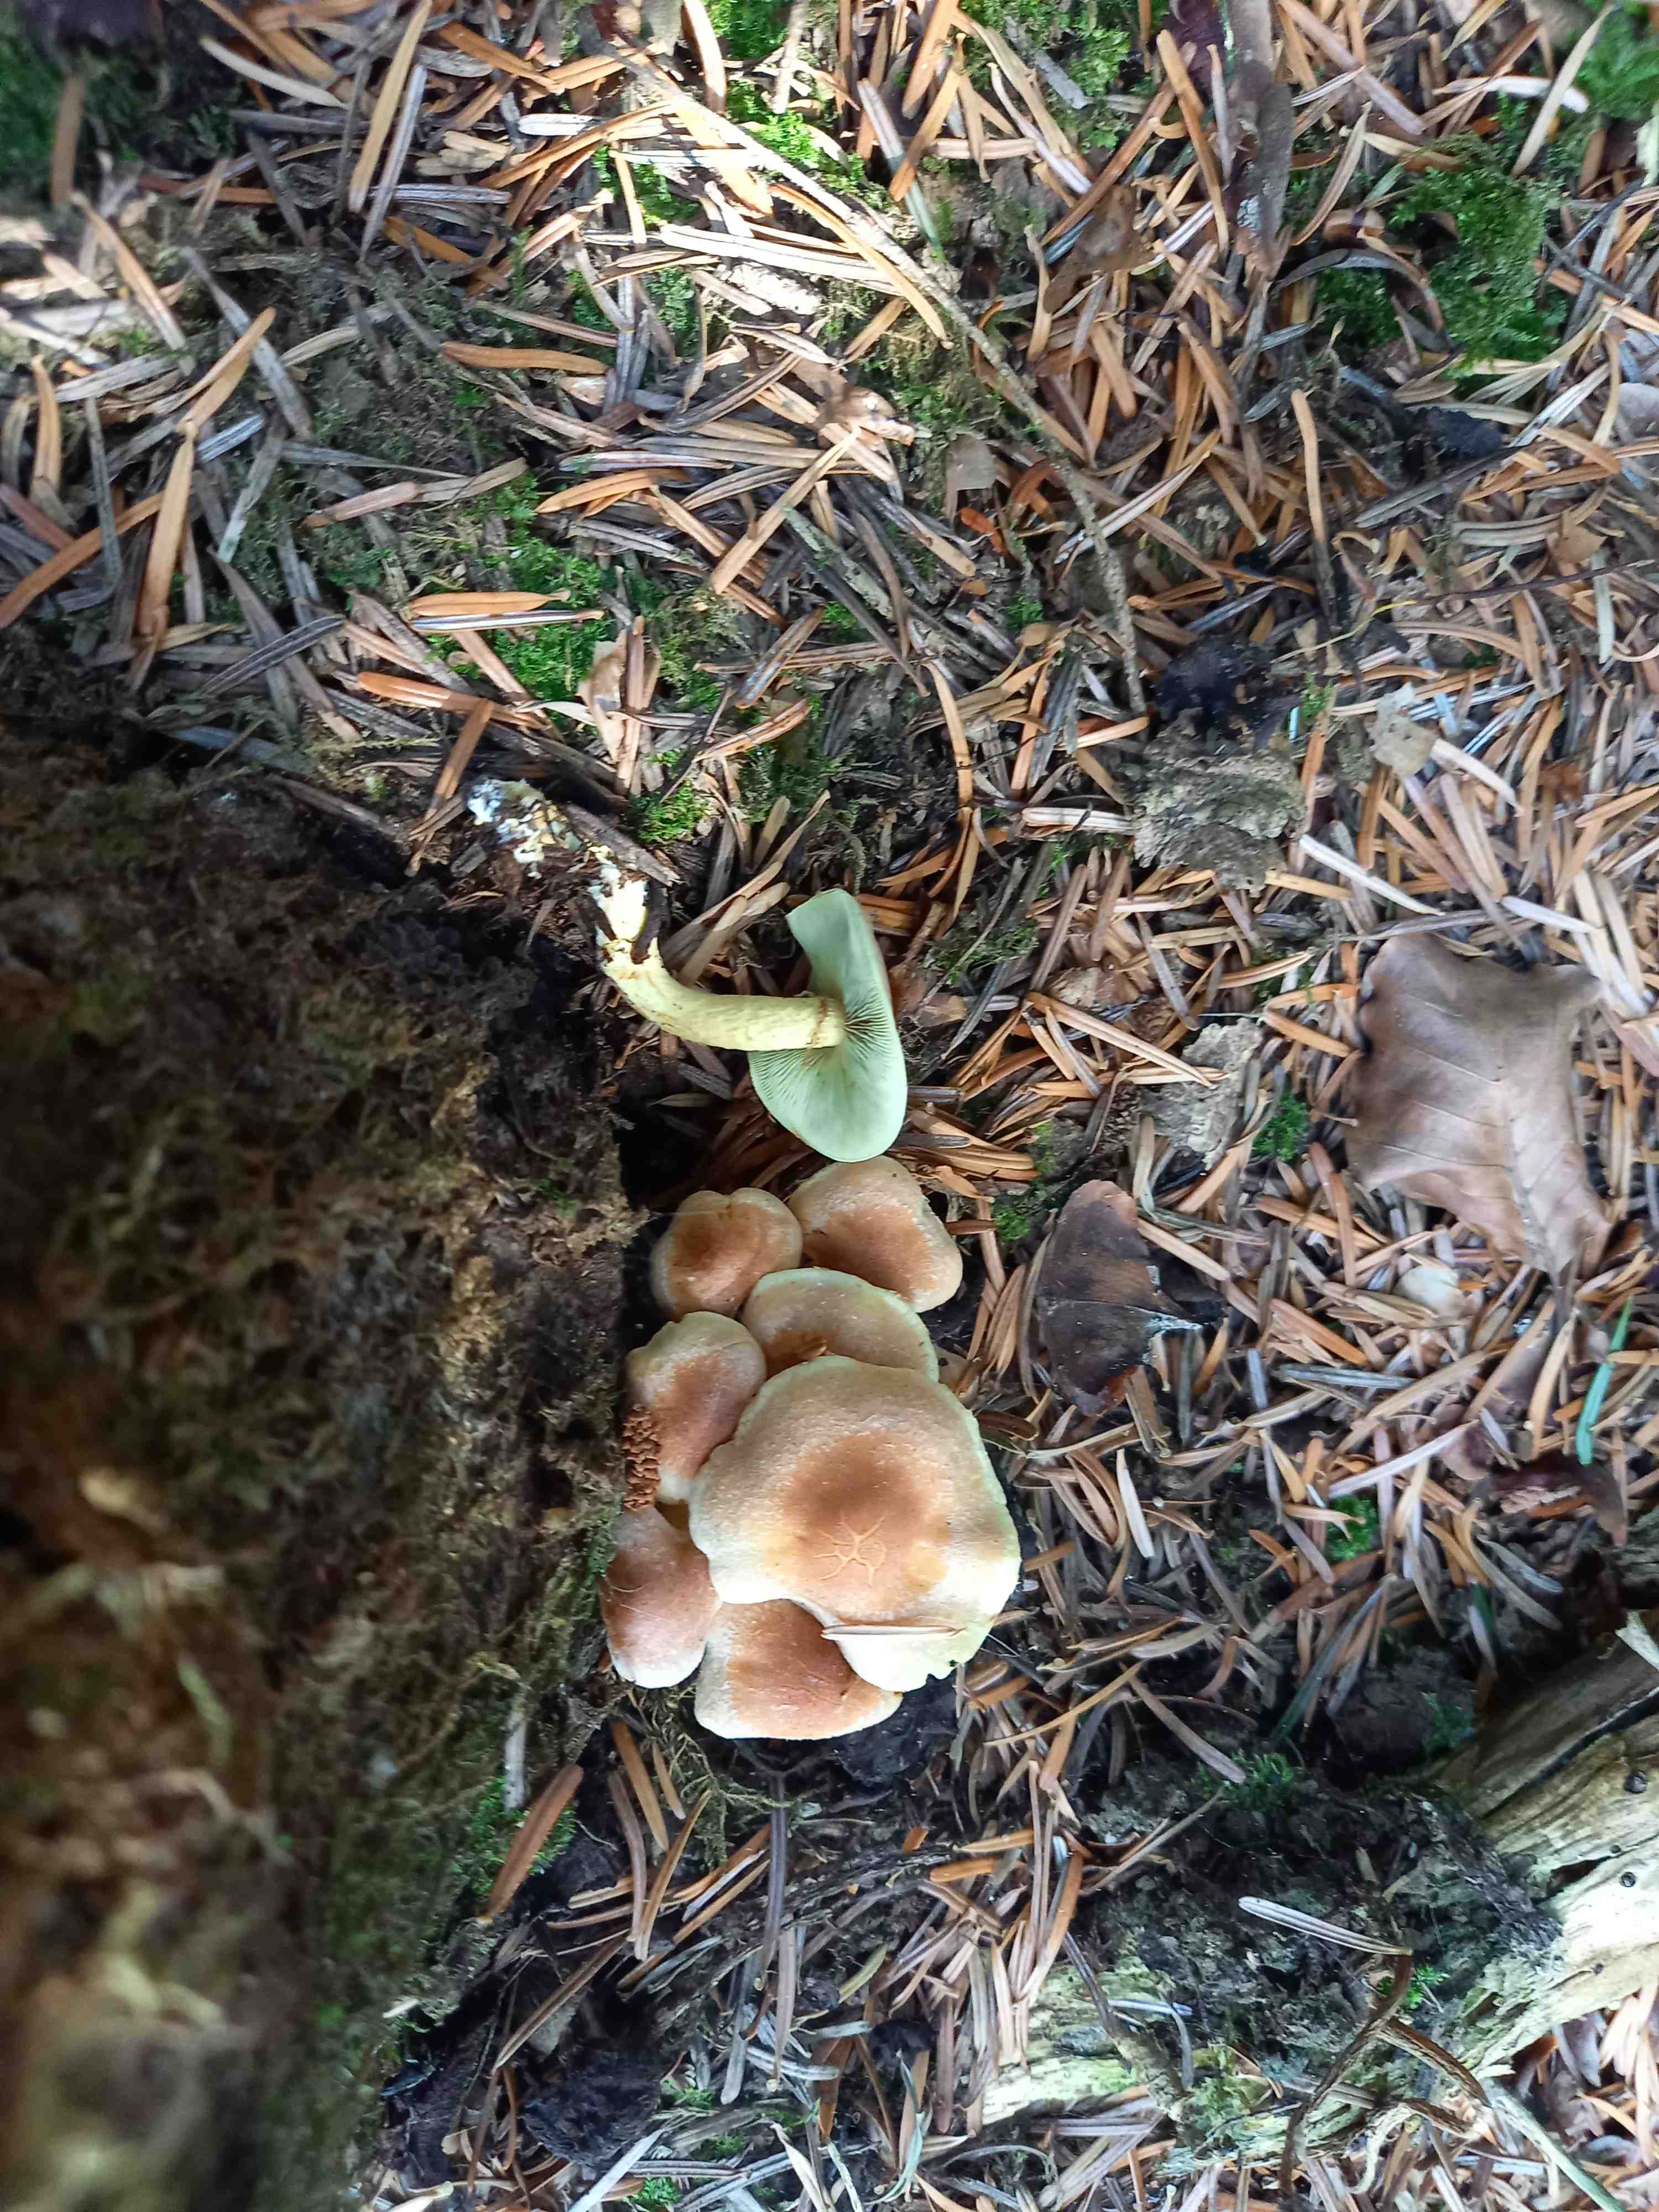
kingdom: Fungi
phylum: Basidiomycota
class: Agaricomycetes
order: Agaricales
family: Strophariaceae
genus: Hypholoma
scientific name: Hypholoma fasciculare
